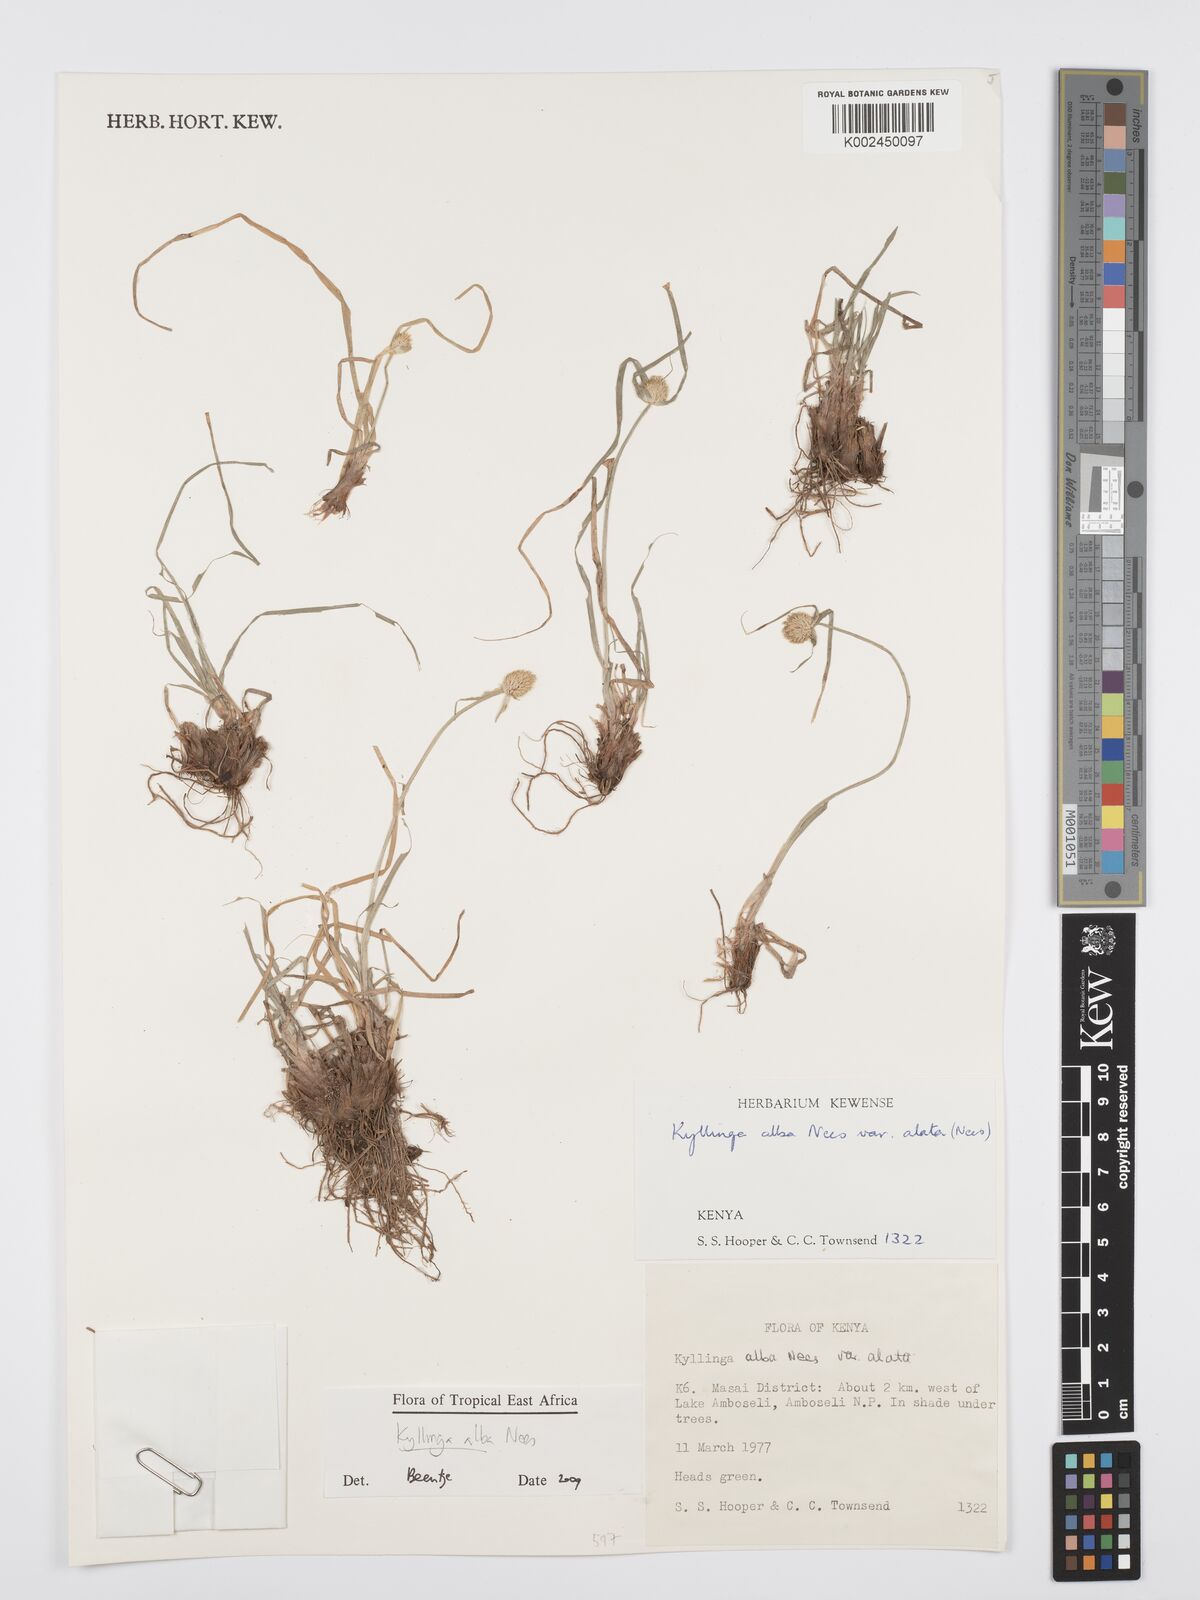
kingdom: Plantae
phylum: Tracheophyta
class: Liliopsida
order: Poales
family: Cyperaceae
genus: Cyperus
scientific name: Cyperus
